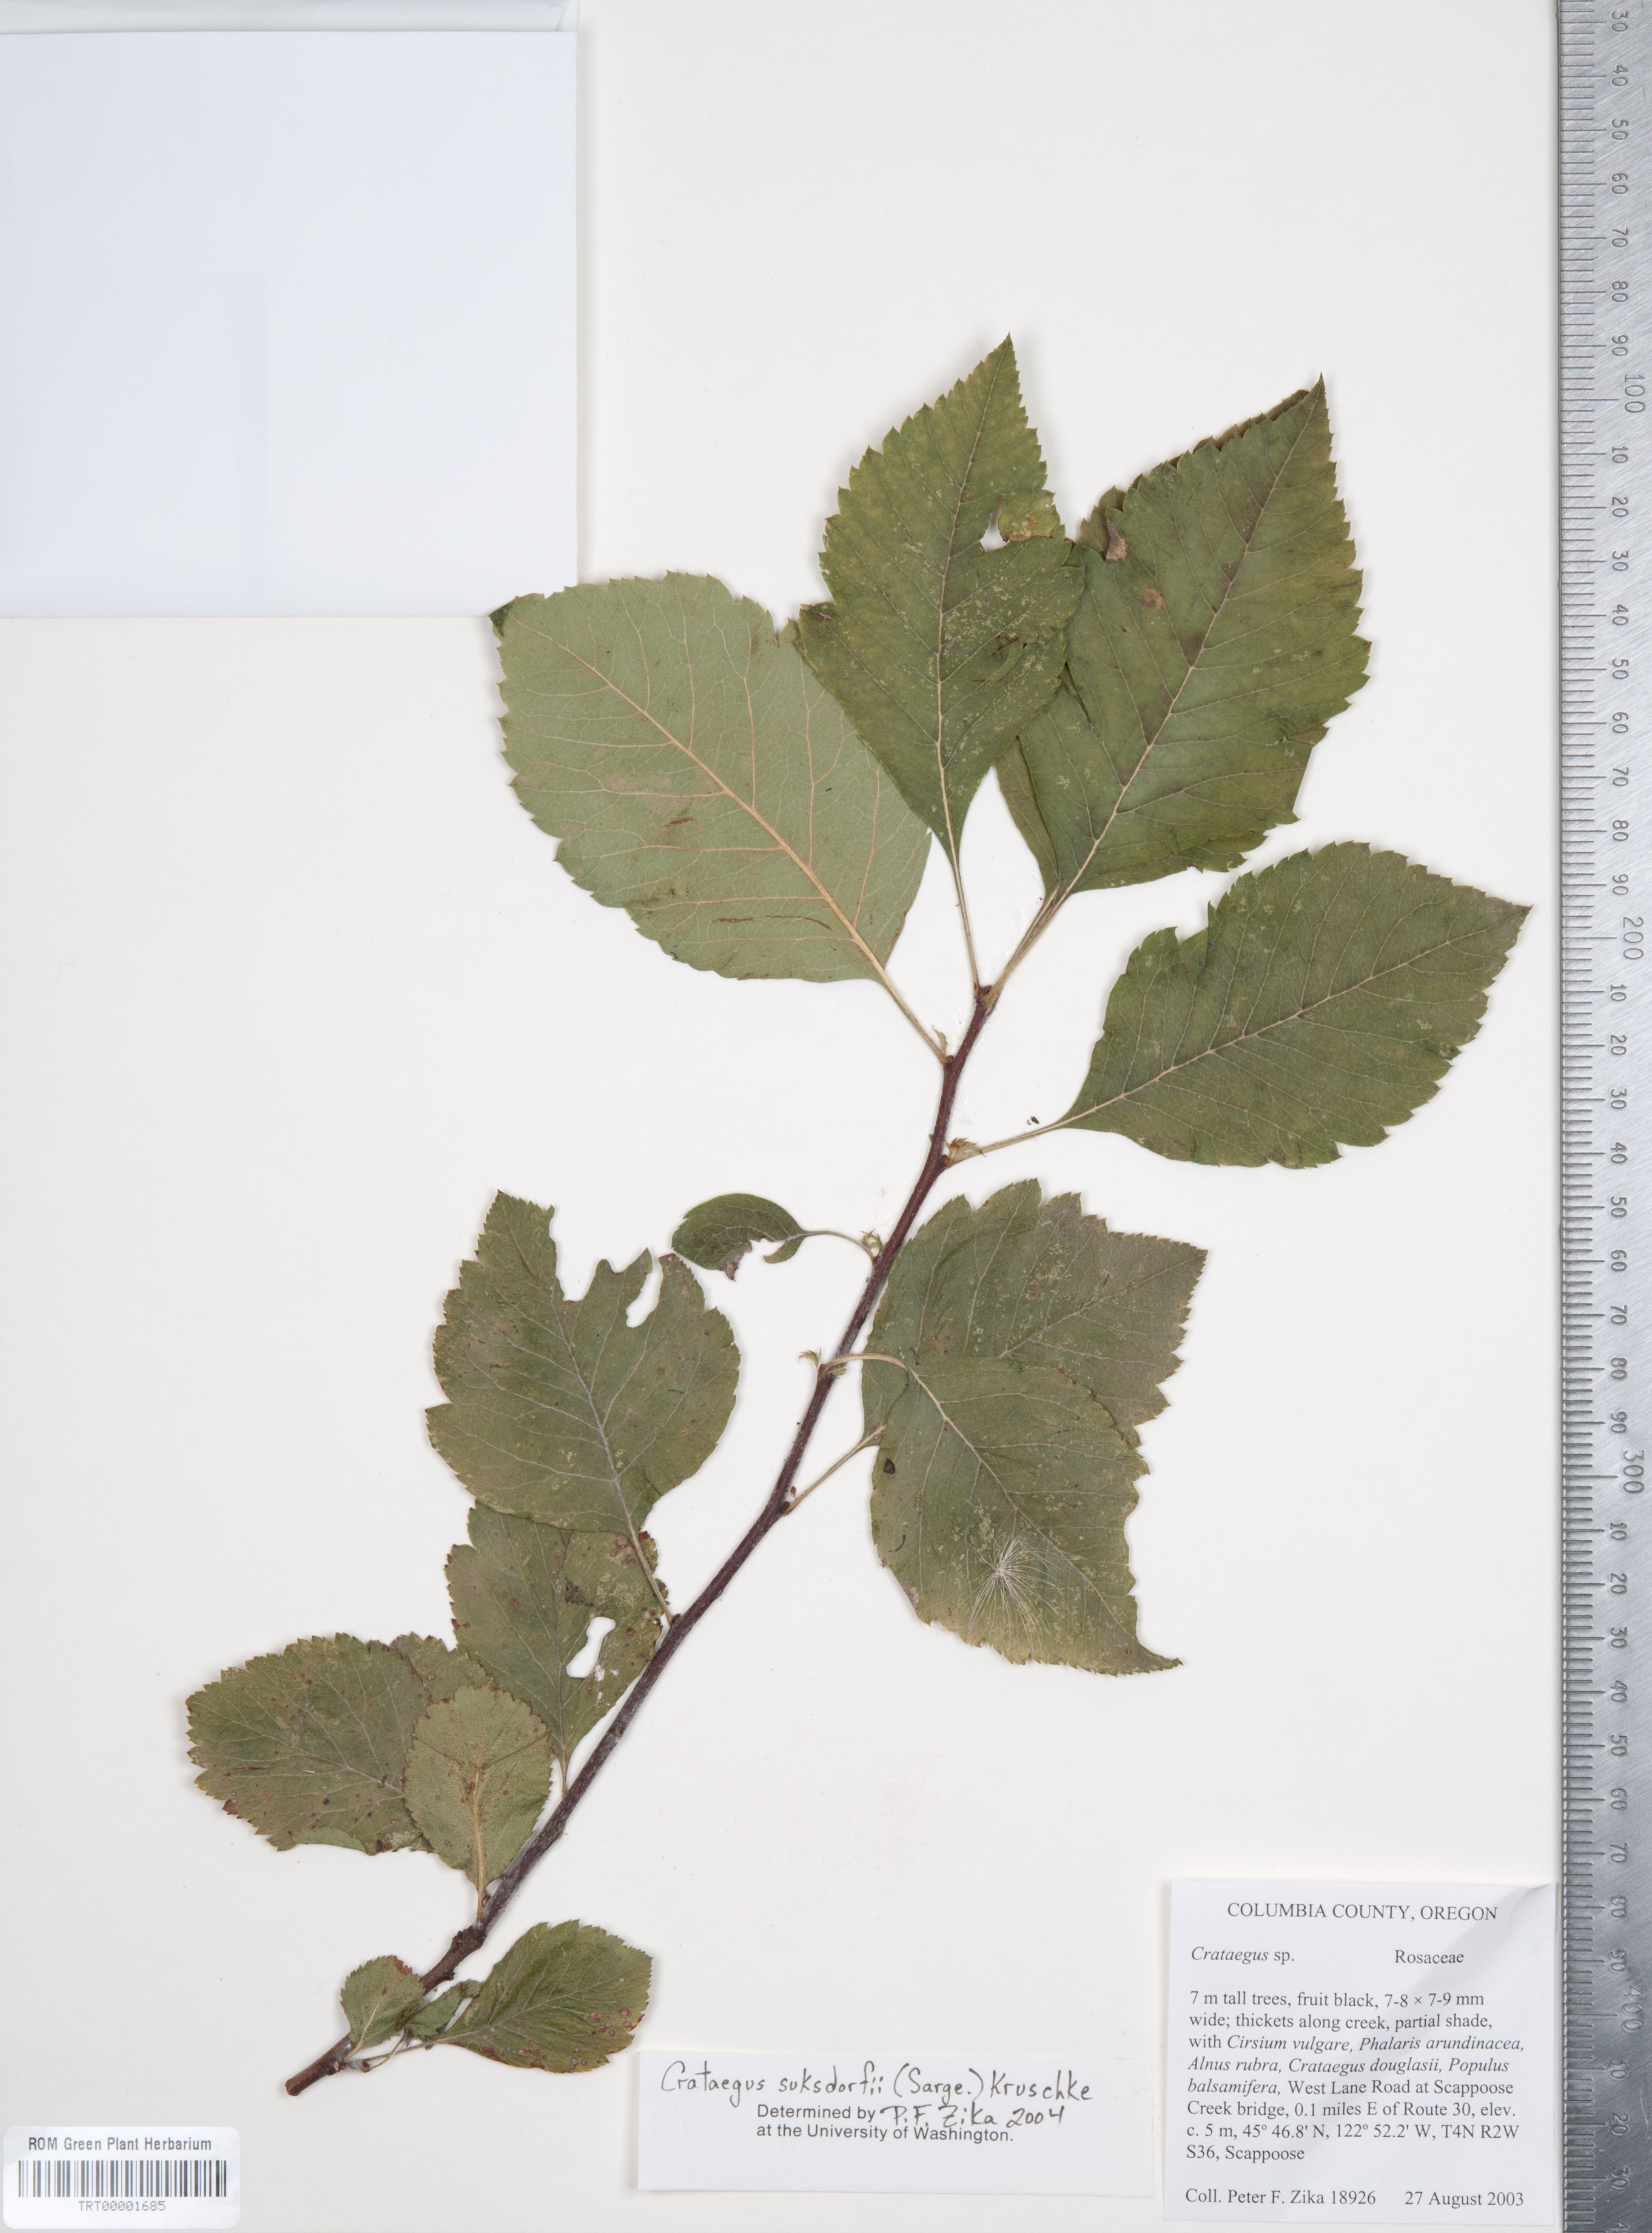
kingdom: Plantae
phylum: Tracheophyta
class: Magnoliopsida
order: Rosales
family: Rosaceae
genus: Crataegus
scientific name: Crataegus gaylussacia
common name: Huckleberry hawthorn
